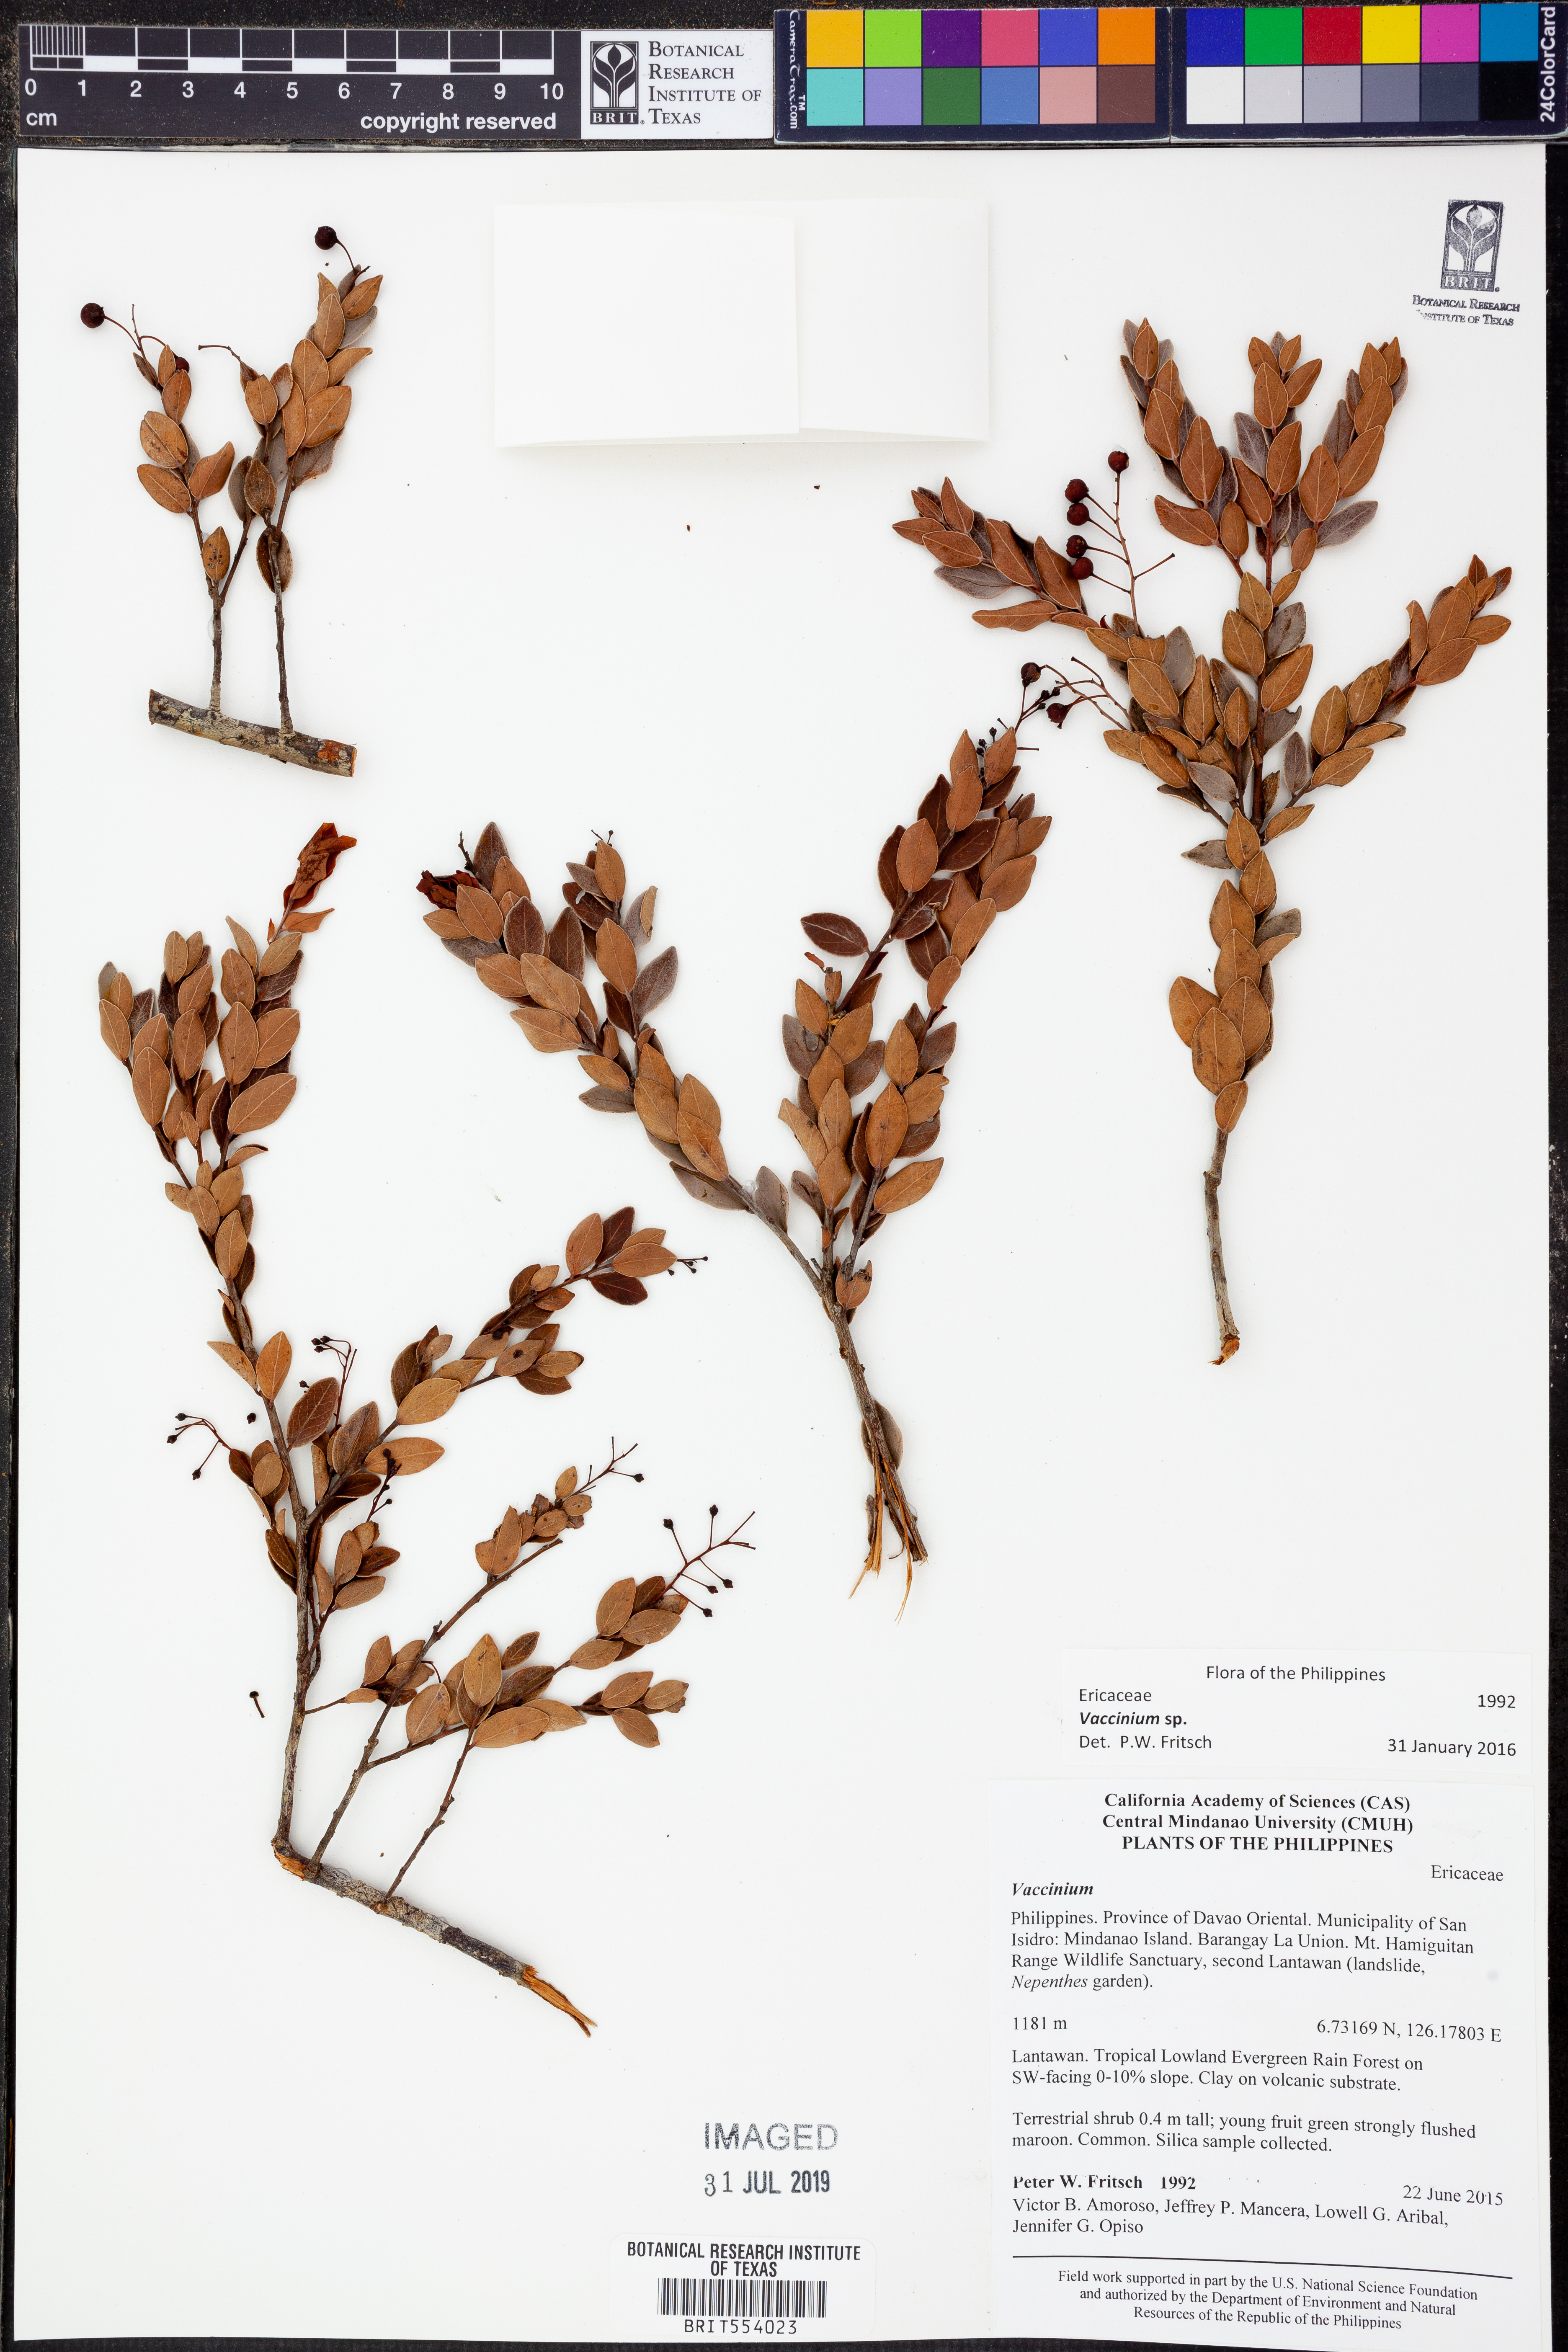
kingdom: Plantae
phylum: Tracheophyta
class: Magnoliopsida
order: Ericales
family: Ericaceae
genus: Vaccinium
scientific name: Vaccinium
